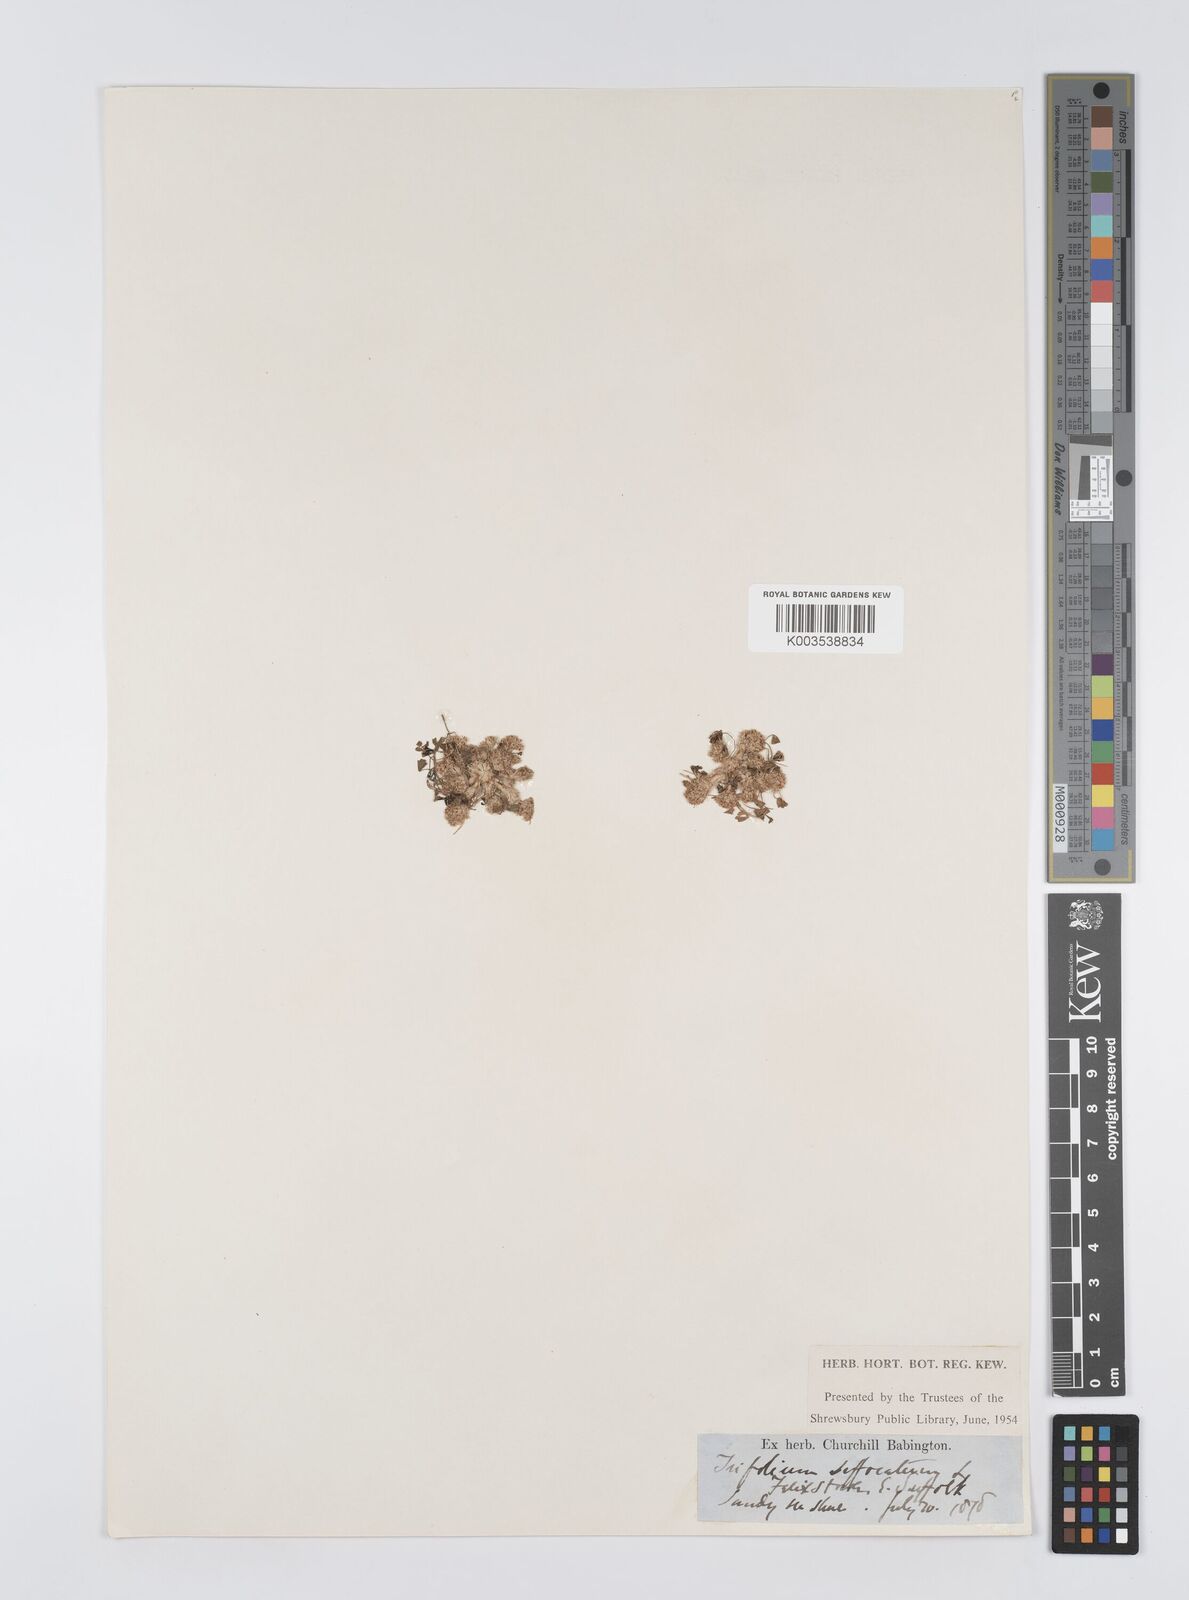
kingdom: Plantae
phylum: Tracheophyta
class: Magnoliopsida
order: Fabales
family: Fabaceae
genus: Trifolium
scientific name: Trifolium suffocatum
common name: Suffocated clover
